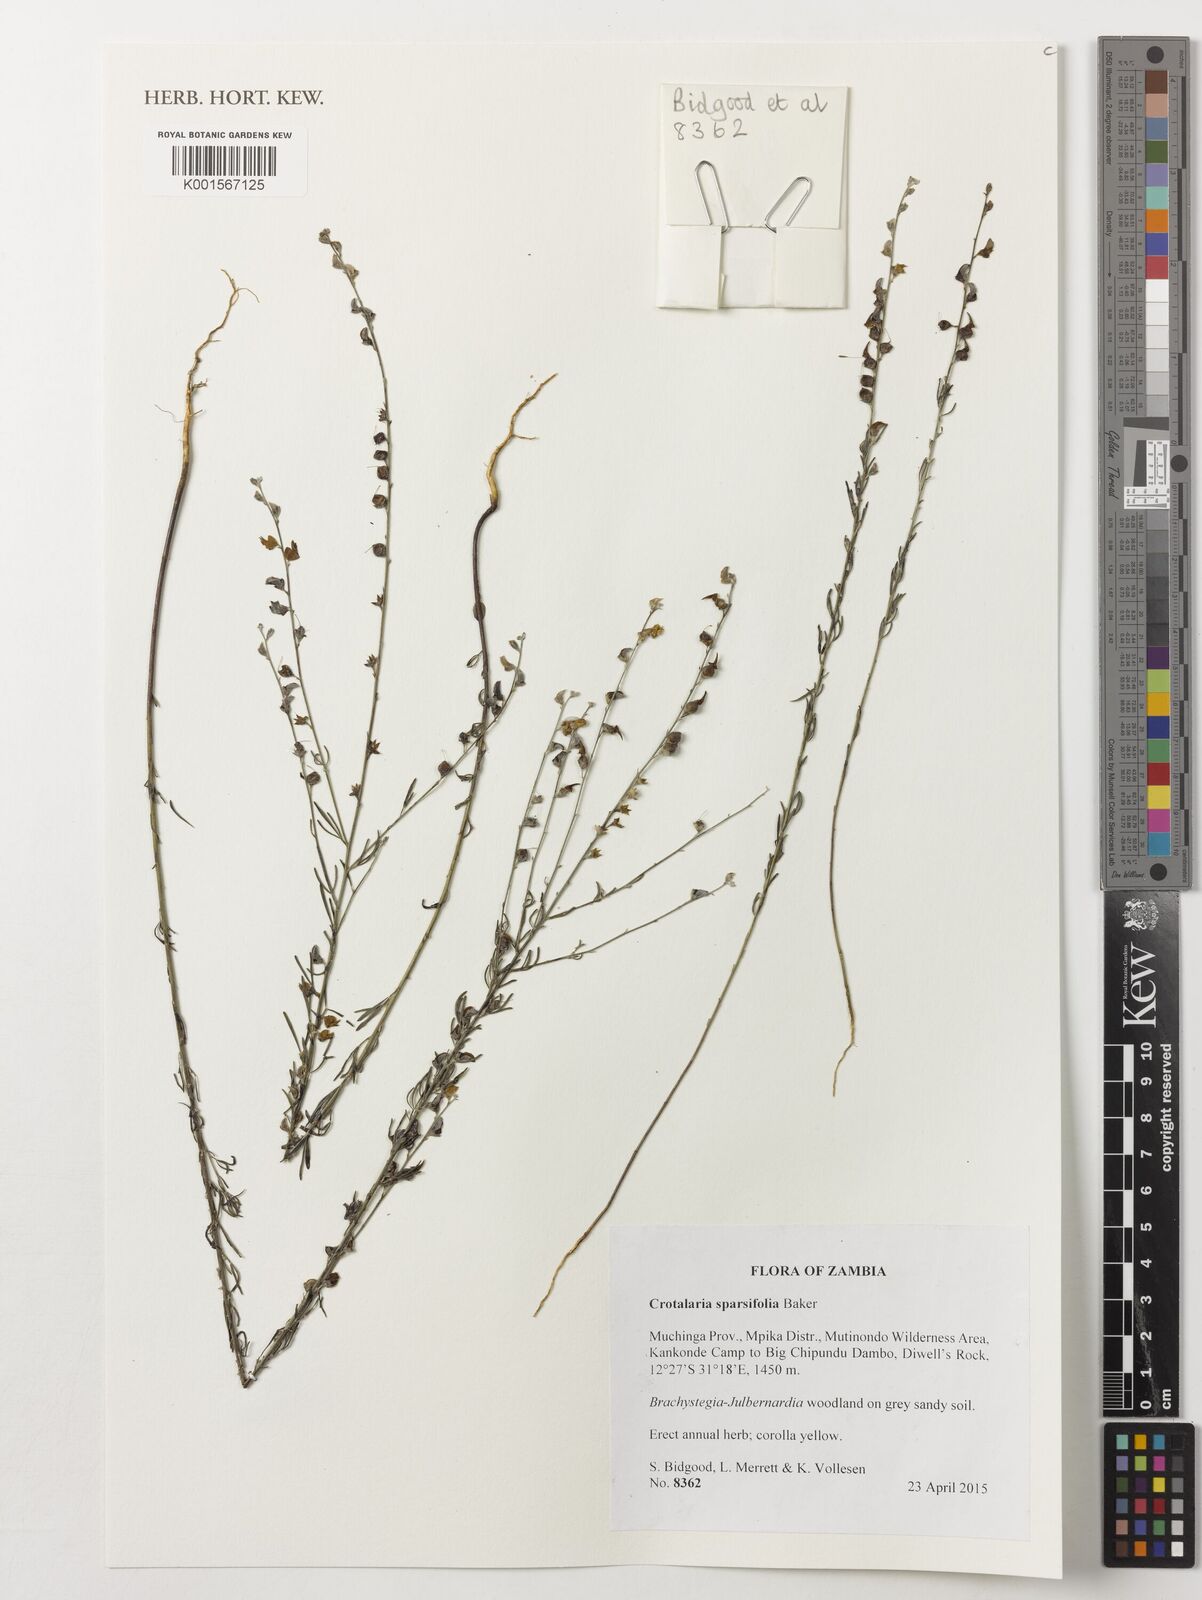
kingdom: Plantae
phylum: Tracheophyta
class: Magnoliopsida
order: Fabales
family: Fabaceae
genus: Crotalaria
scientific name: Crotalaria sparsifolia
